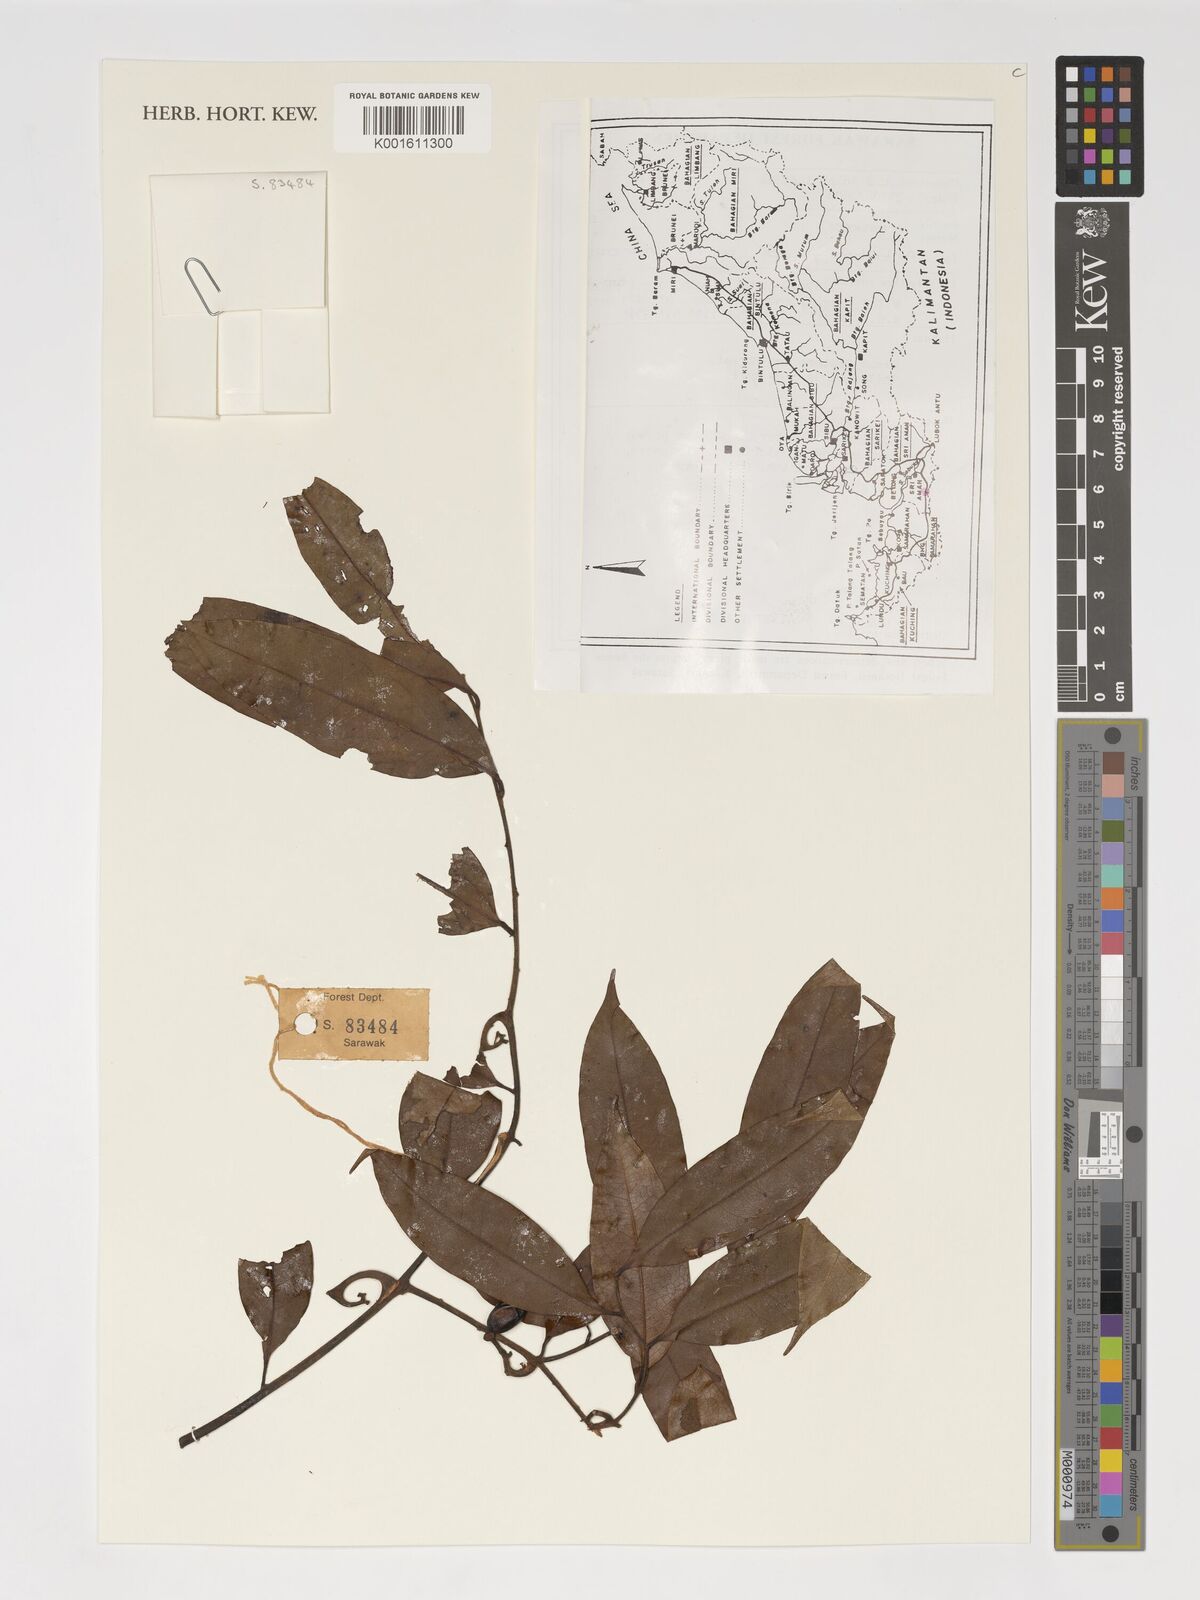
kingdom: Plantae
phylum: Tracheophyta
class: Magnoliopsida
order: Magnoliales
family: Annonaceae
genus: Artabotrys
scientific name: Artabotrys
